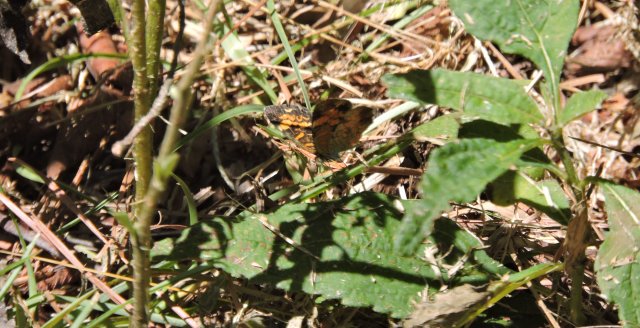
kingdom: Animalia
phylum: Arthropoda
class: Insecta
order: Lepidoptera
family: Nymphalidae
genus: Phyciodes
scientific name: Phyciodes tharos
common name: Pearl Crescent
